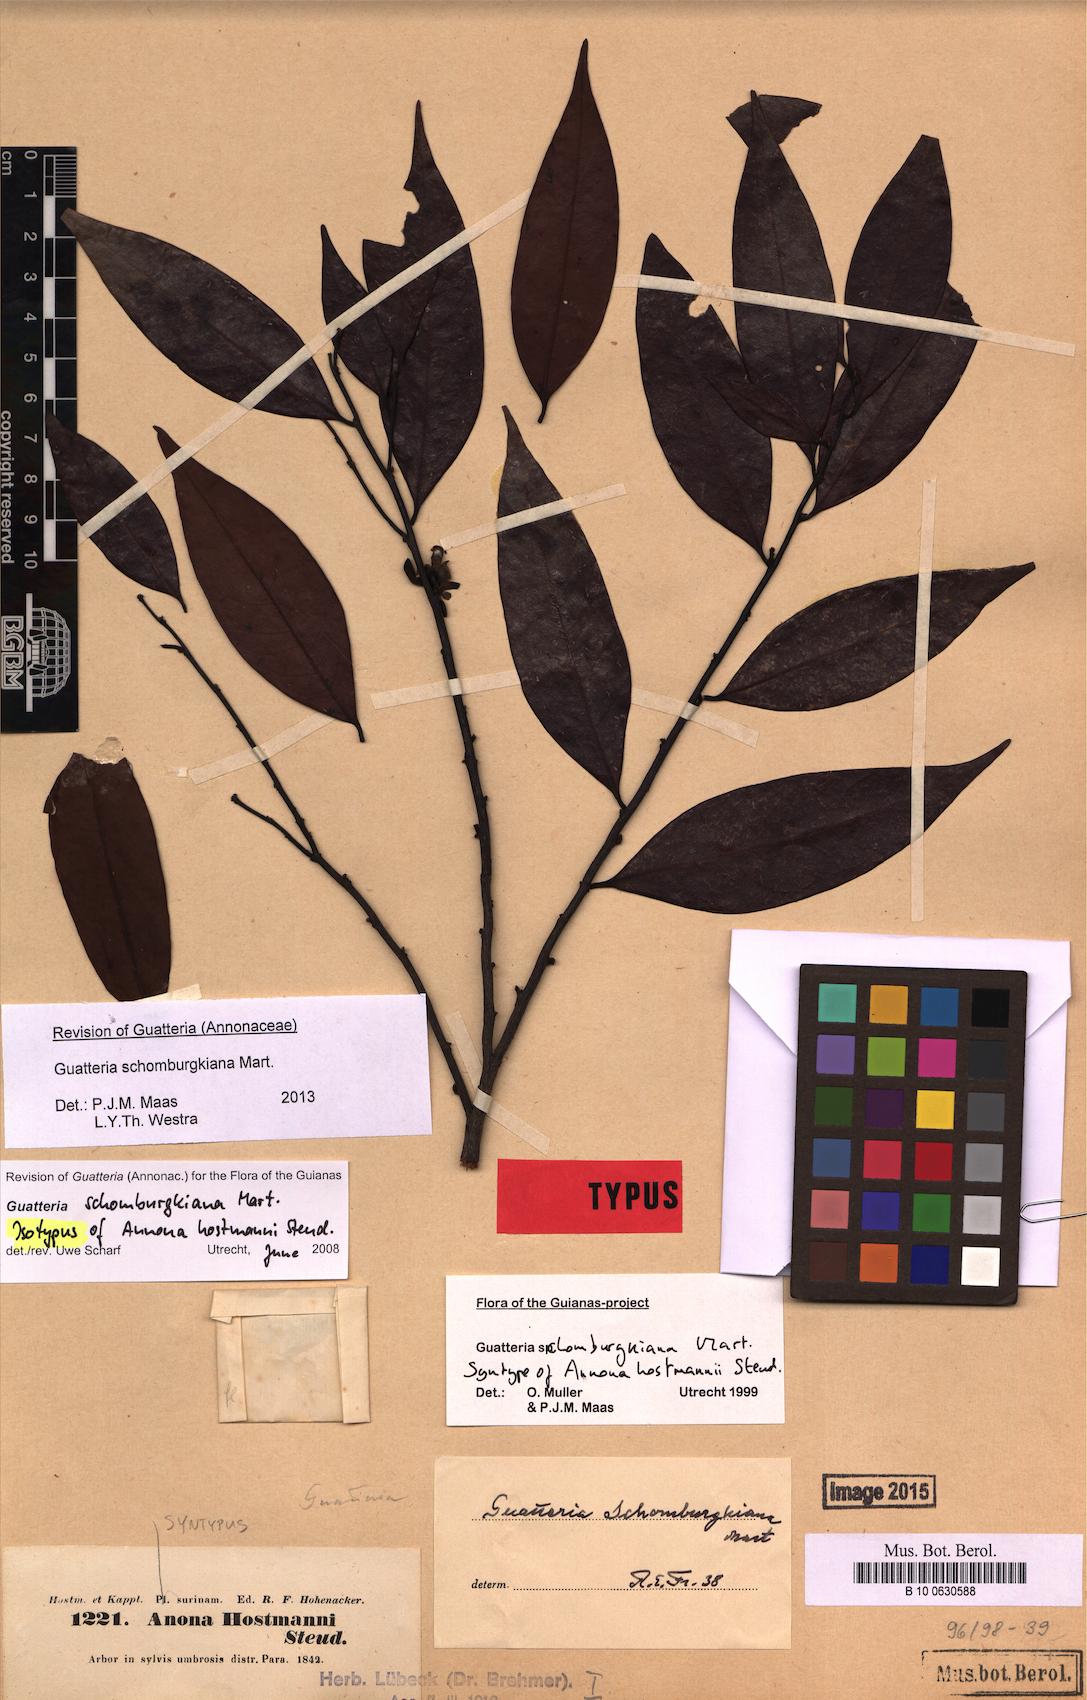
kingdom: Plantae
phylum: Tracheophyta
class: Magnoliopsida
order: Magnoliales
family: Annonaceae
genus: Guatteria
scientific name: Guatteria schomburgkiana
